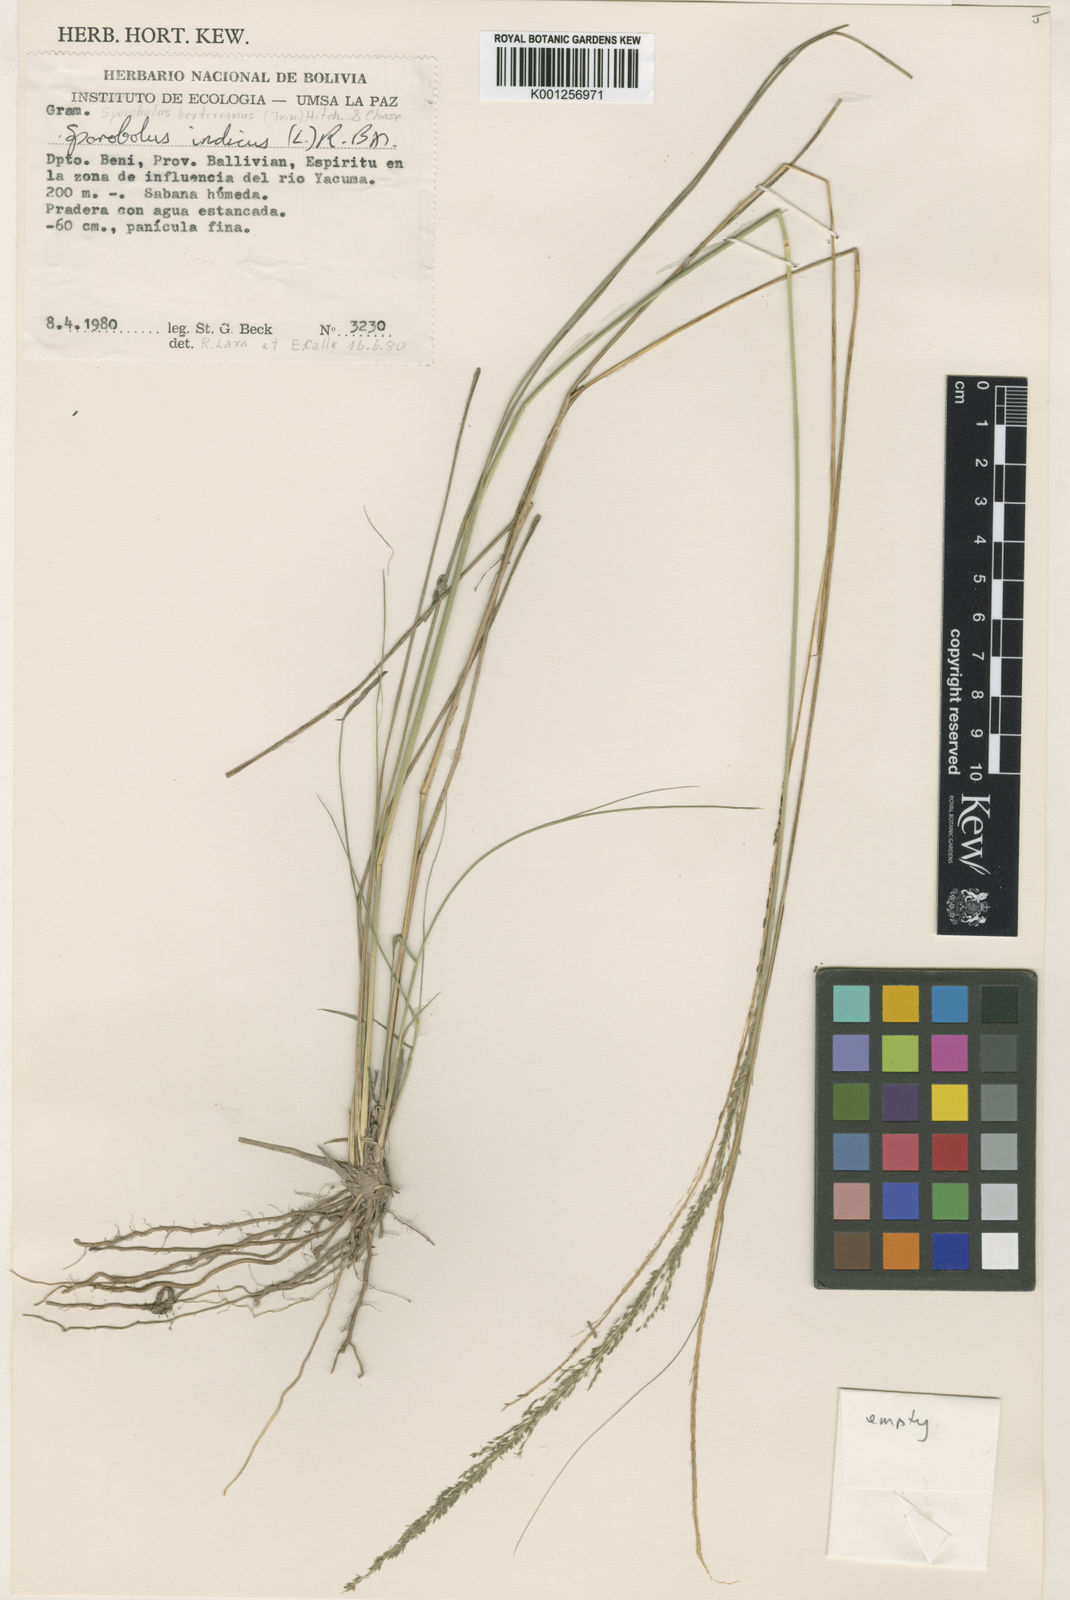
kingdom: Plantae
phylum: Tracheophyta
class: Liliopsida
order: Poales
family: Poaceae
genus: Sporobolus
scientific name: Sporobolus indicus
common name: Smut grass
